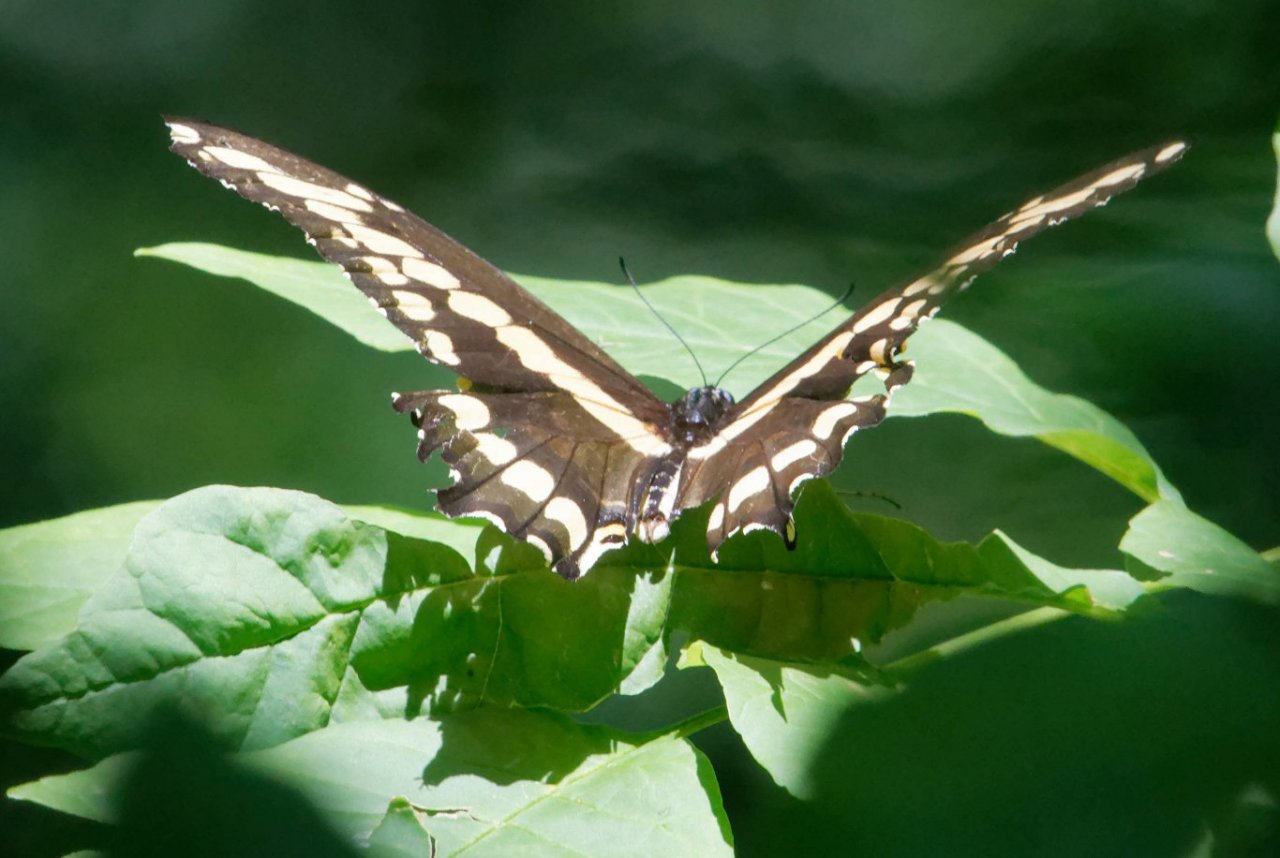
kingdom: Animalia
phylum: Arthropoda
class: Insecta
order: Lepidoptera
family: Papilionidae
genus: Papilio
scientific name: Papilio cresphontes
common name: Eastern Giant Swallowtail
